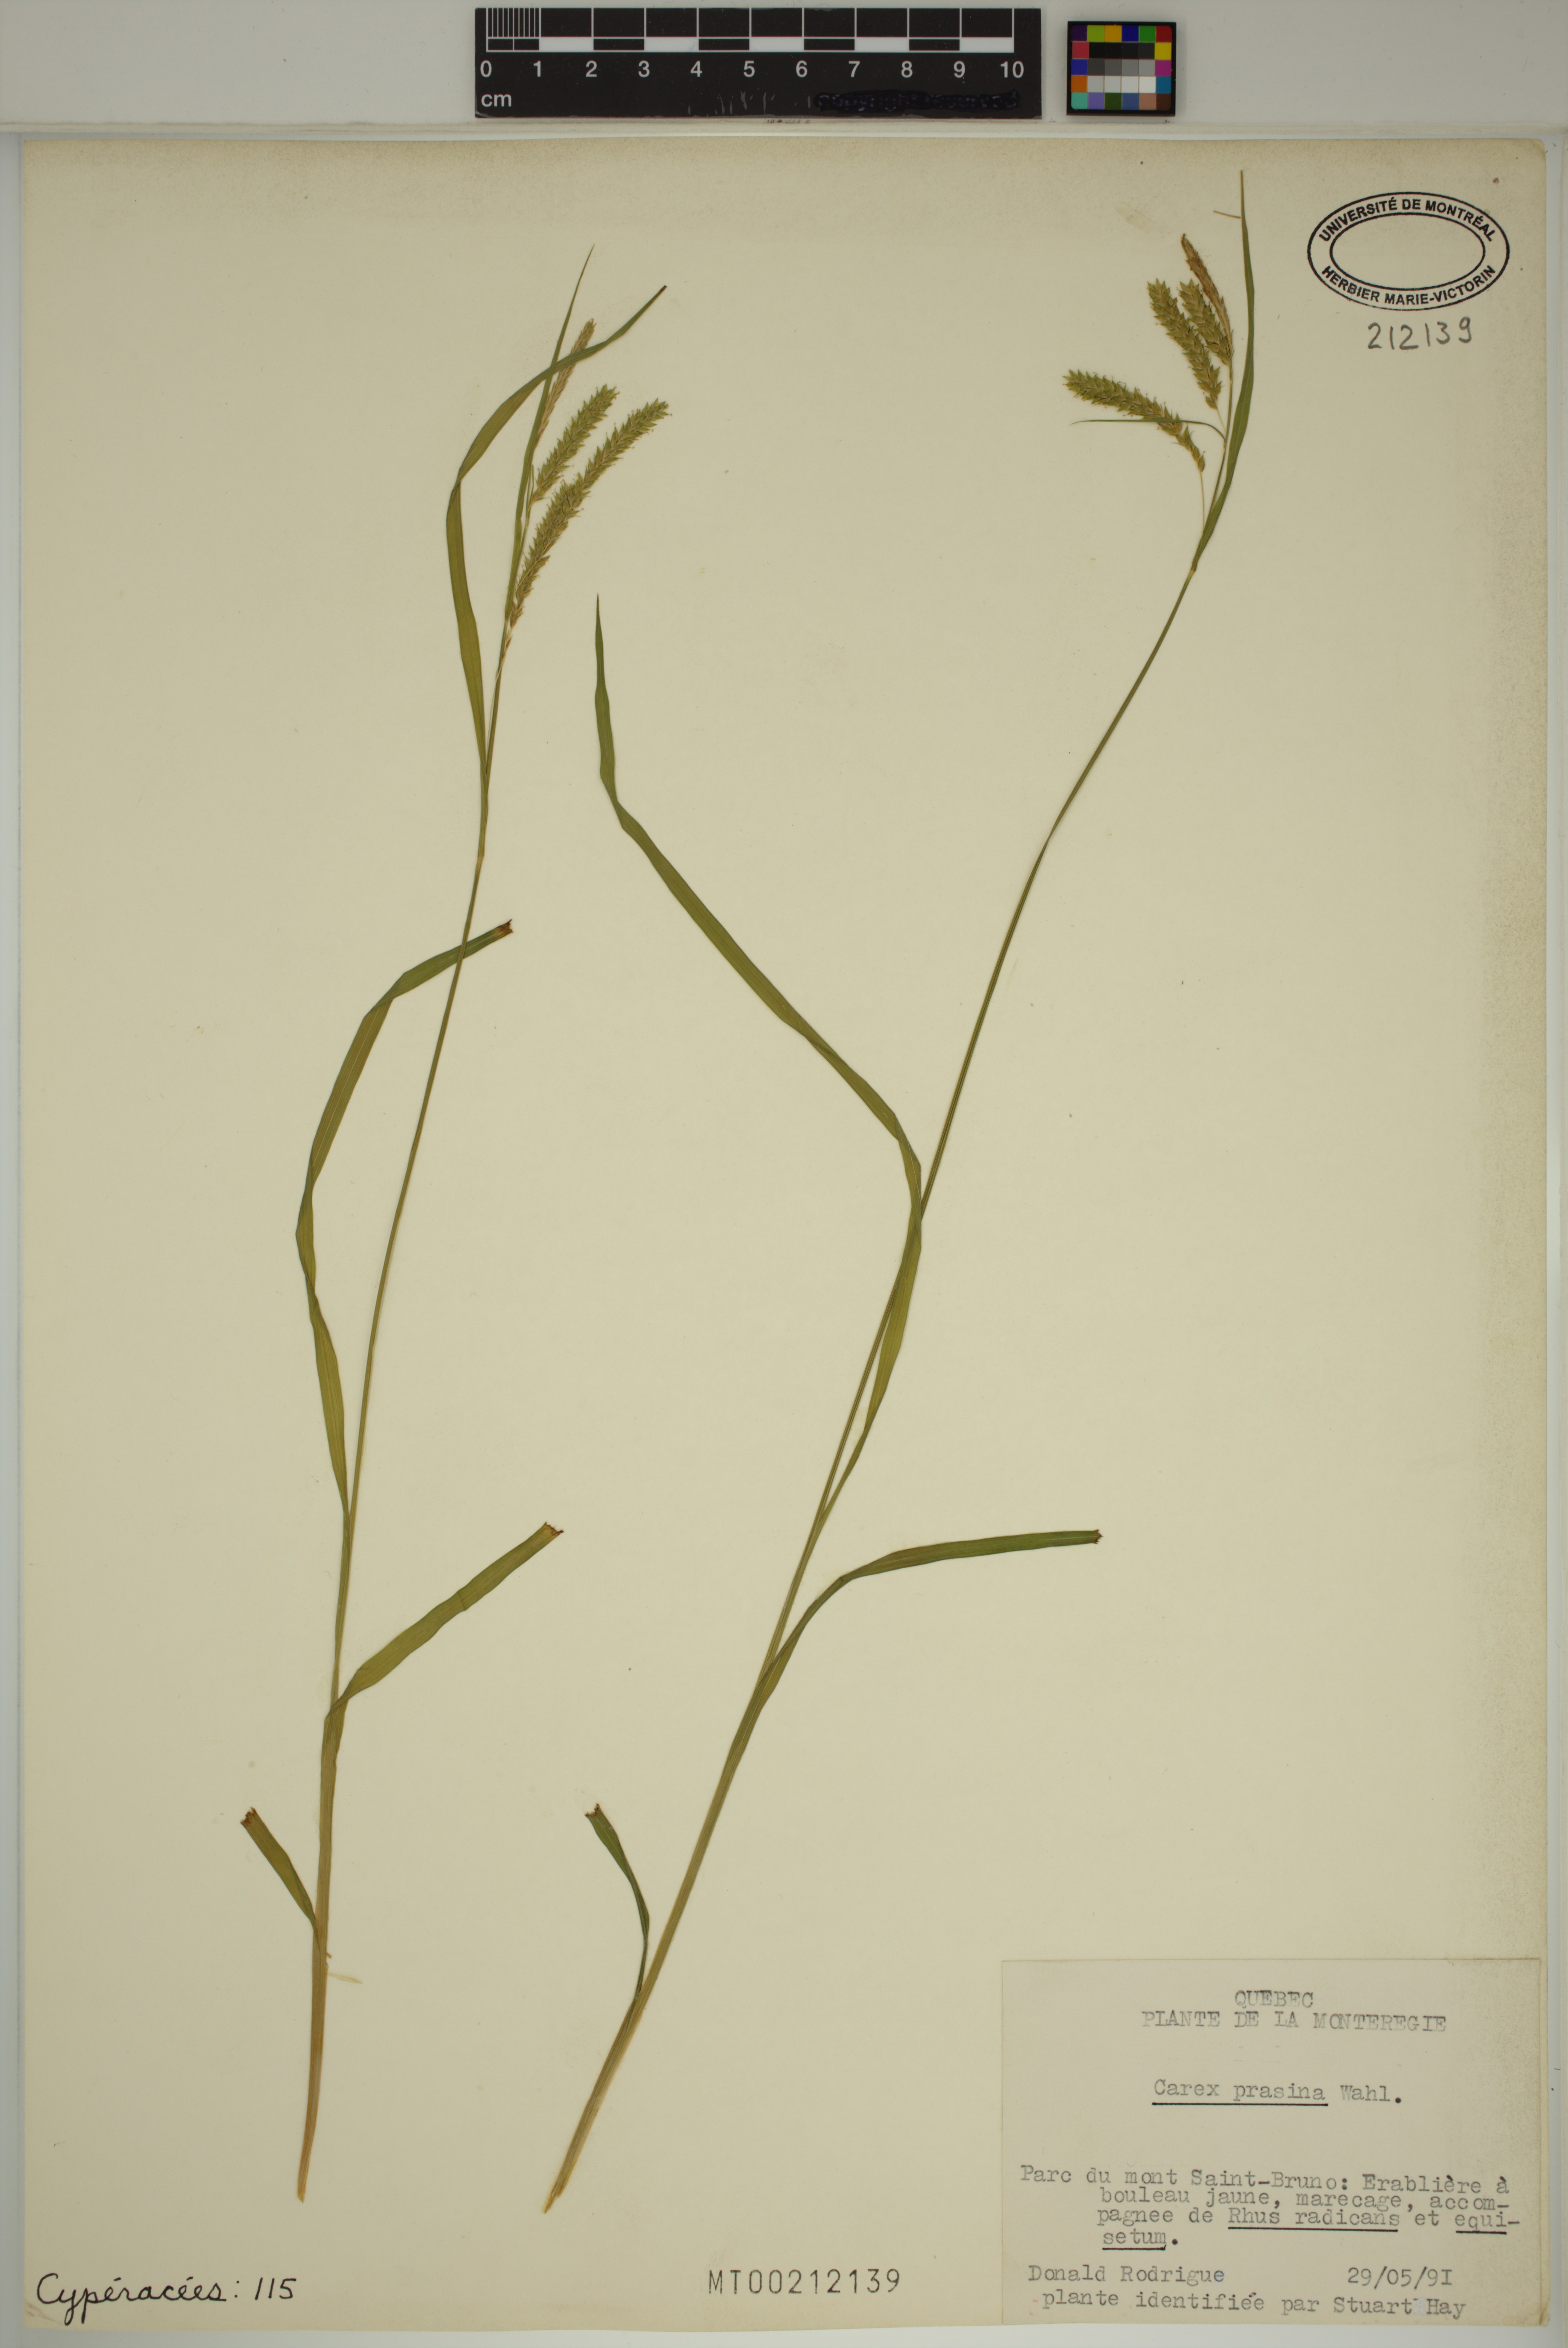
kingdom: Plantae
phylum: Tracheophyta
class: Liliopsida
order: Poales
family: Cyperaceae
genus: Carex
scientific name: Carex prasina
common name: Drooping sedge
